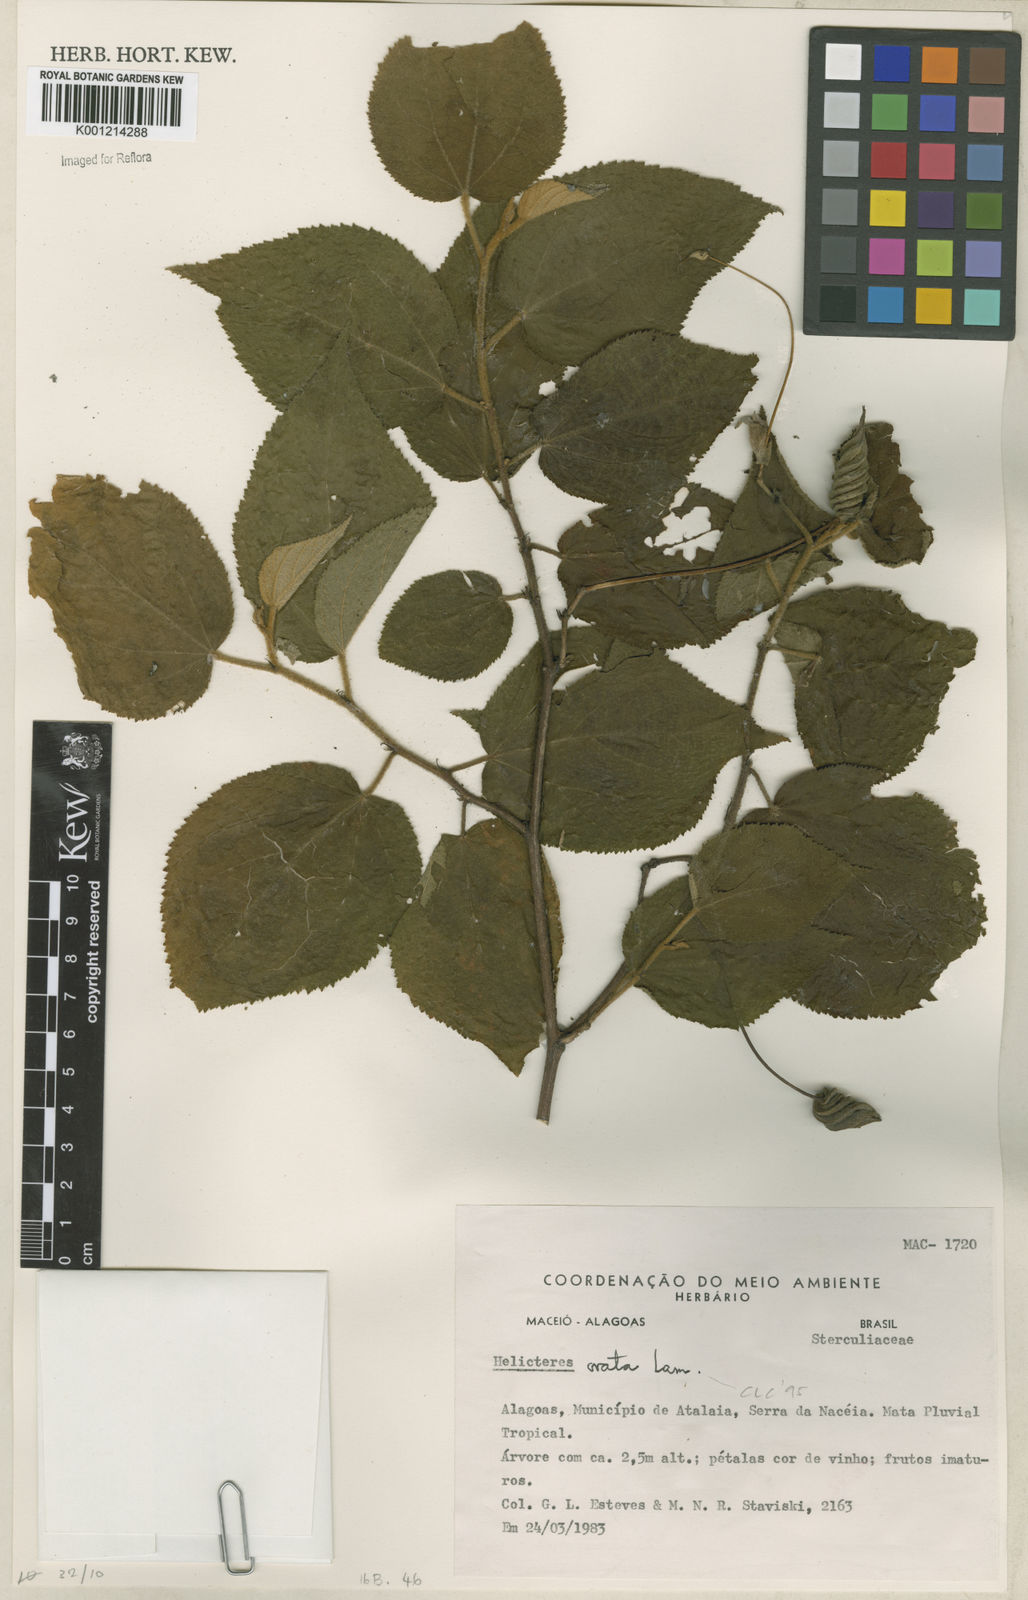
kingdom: Plantae
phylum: Tracheophyta
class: Magnoliopsida
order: Malvales
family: Malvaceae
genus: Helicteres
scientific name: Helicteres ovata
